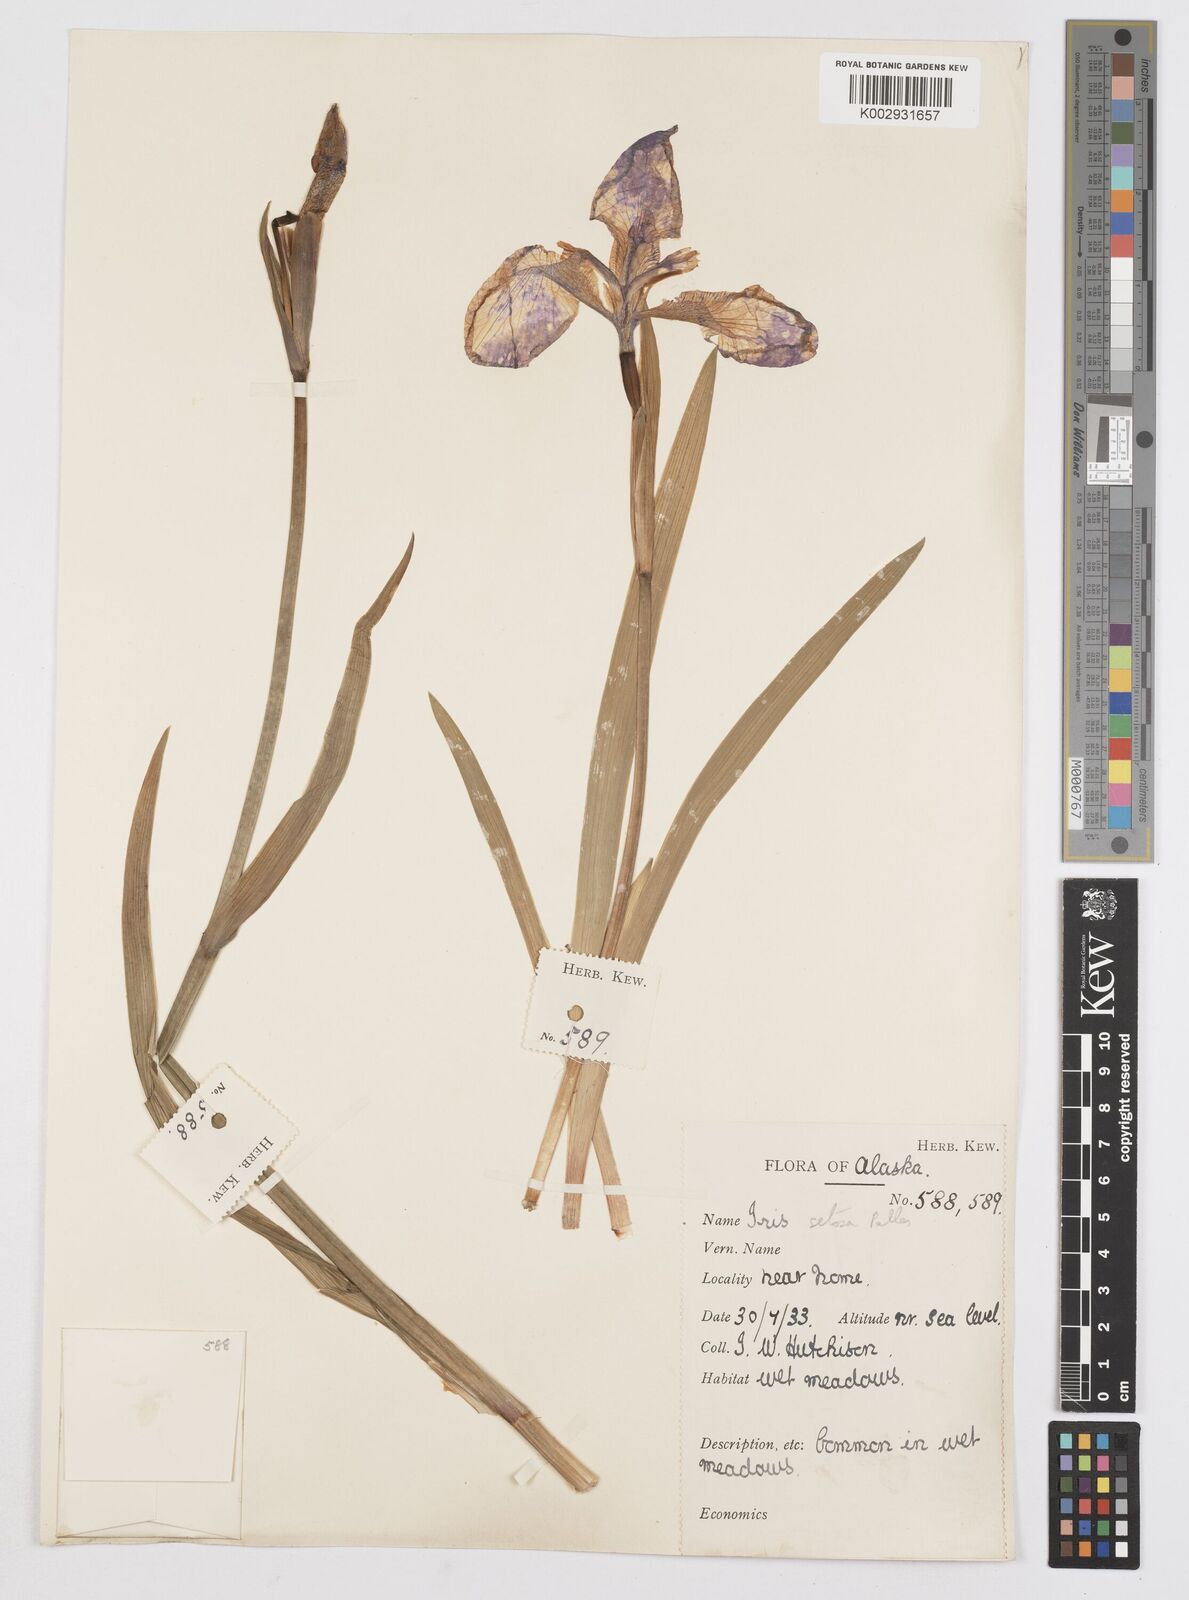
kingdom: Plantae
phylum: Tracheophyta
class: Liliopsida
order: Asparagales
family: Iridaceae
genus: Iris
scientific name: Iris setosa
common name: Arctic blue flag
